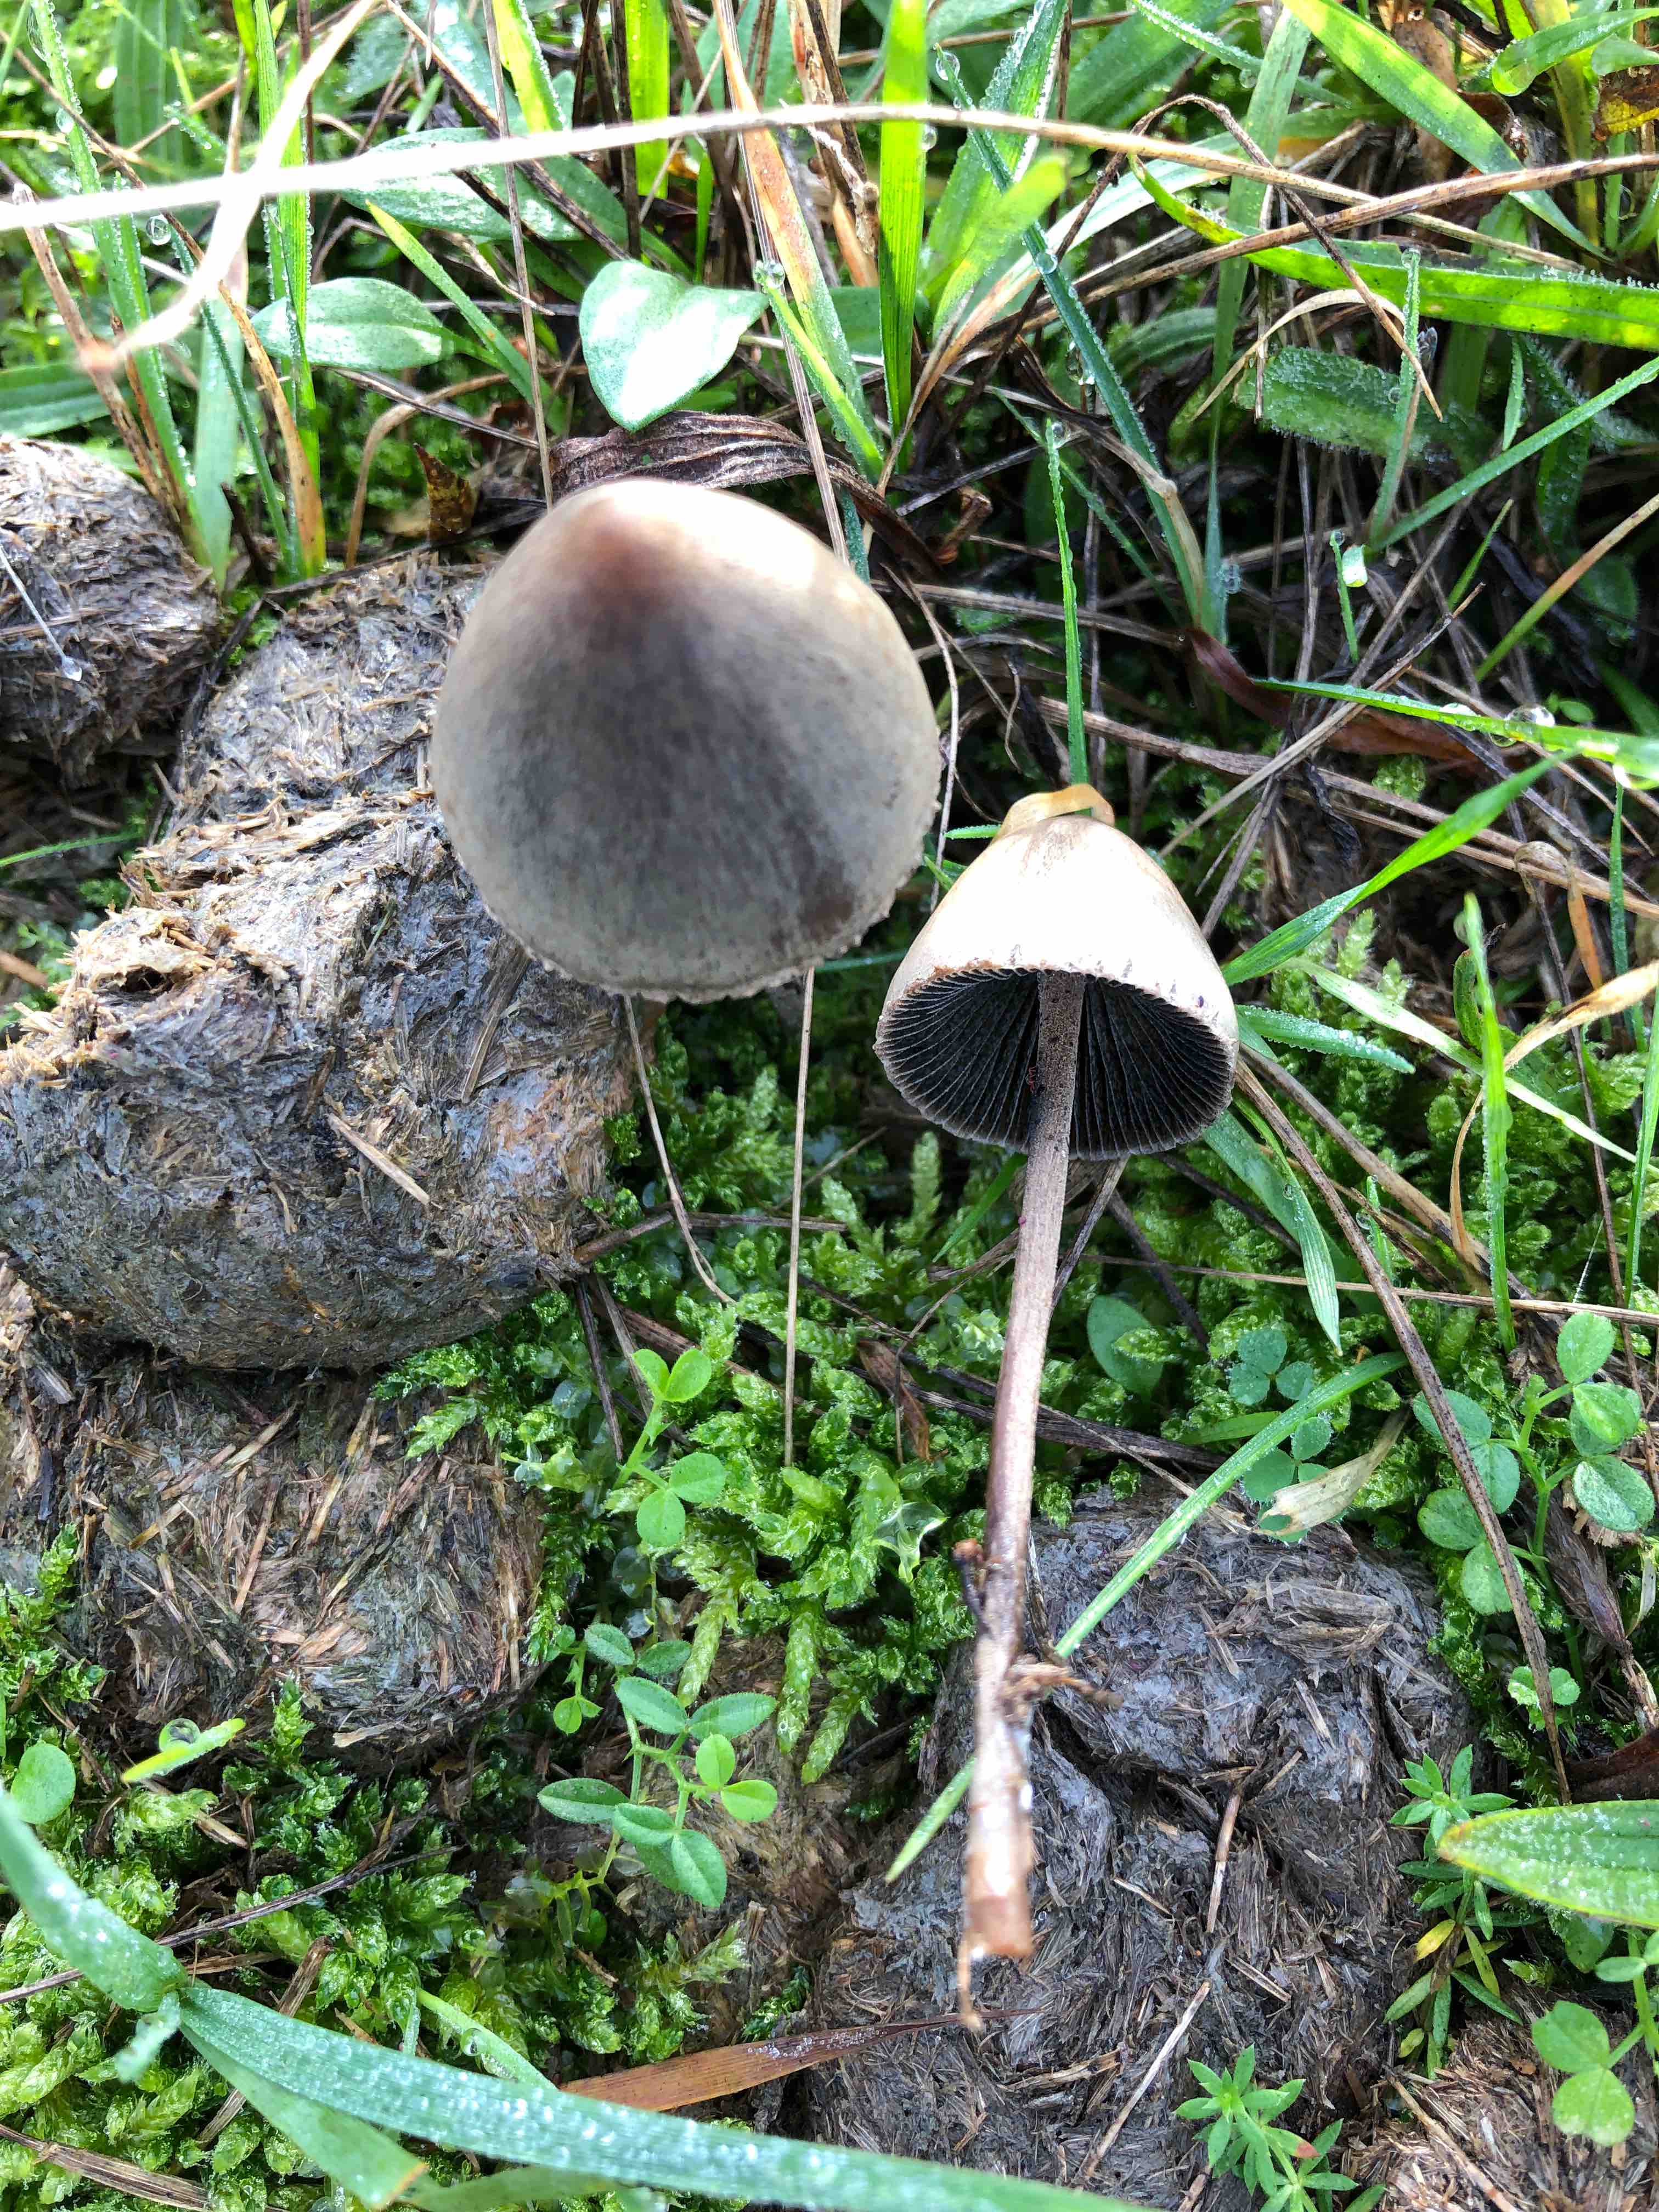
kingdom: Fungi
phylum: Basidiomycota
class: Agaricomycetes
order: Agaricales
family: Bolbitiaceae
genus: Panaeolus
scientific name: Panaeolus papilionaceus
